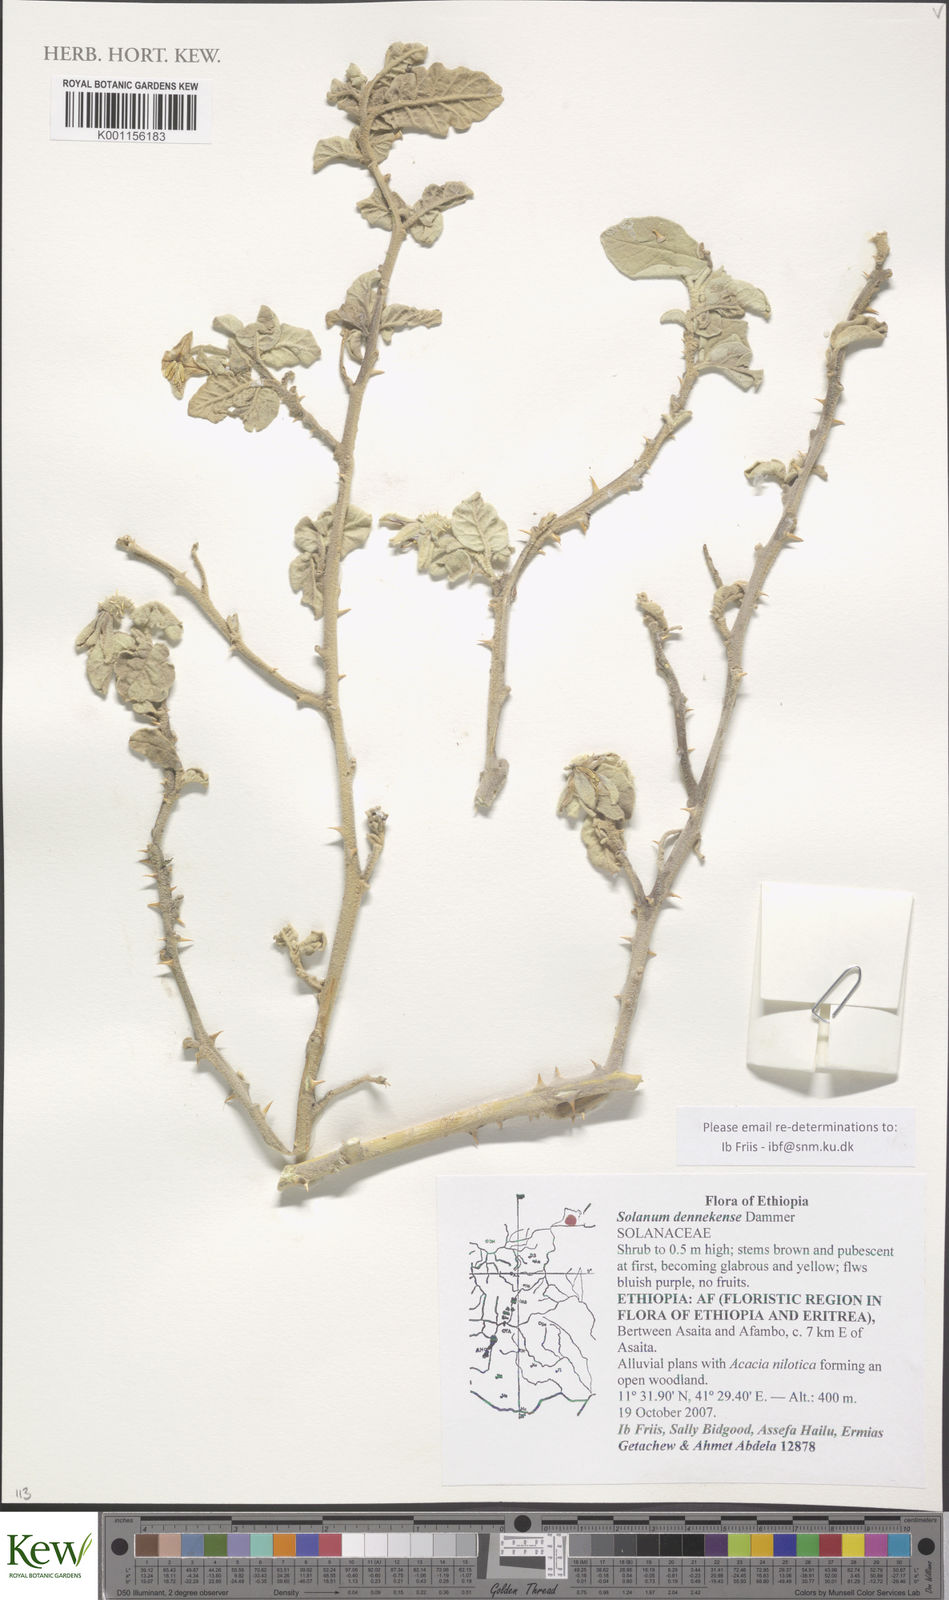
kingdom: Plantae
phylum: Tracheophyta
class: Magnoliopsida
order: Solanales
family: Solanaceae
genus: Solanum
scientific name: Solanum dennekense
